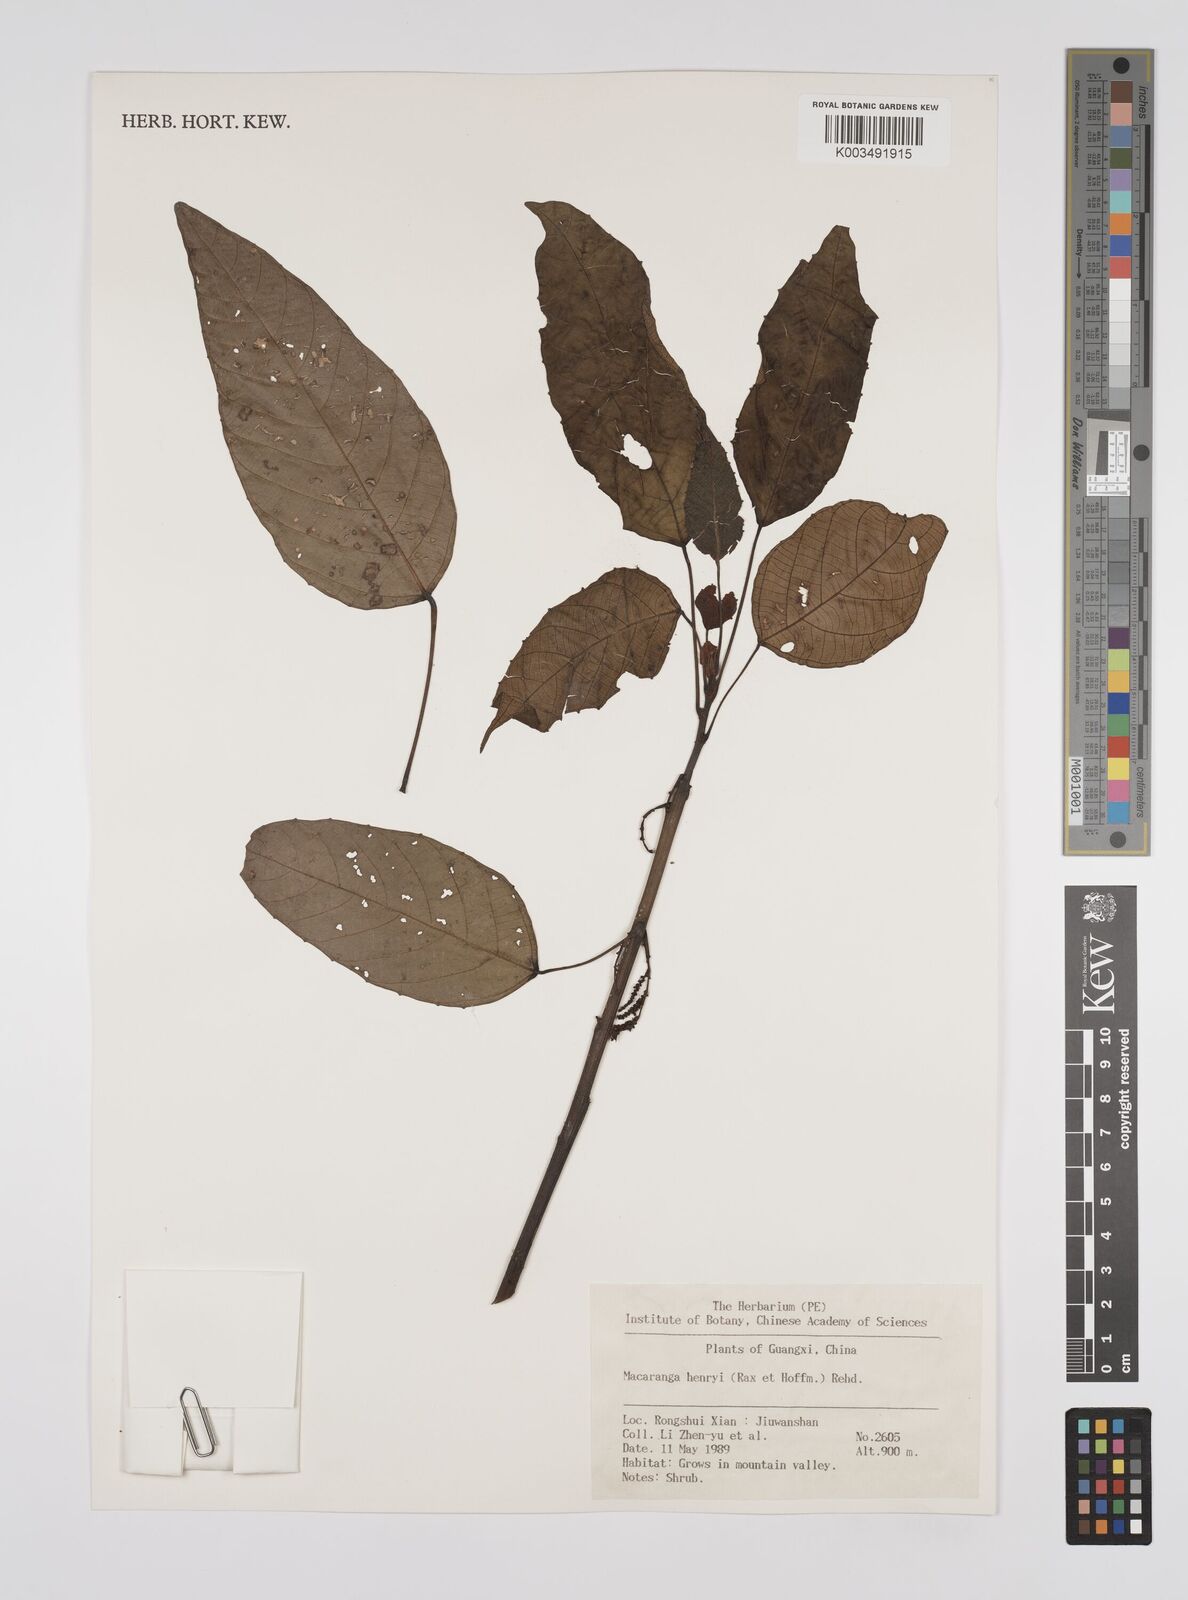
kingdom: Plantae
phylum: Tracheophyta
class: Magnoliopsida
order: Malpighiales
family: Euphorbiaceae
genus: Macaranga
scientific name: Macaranga henryi
